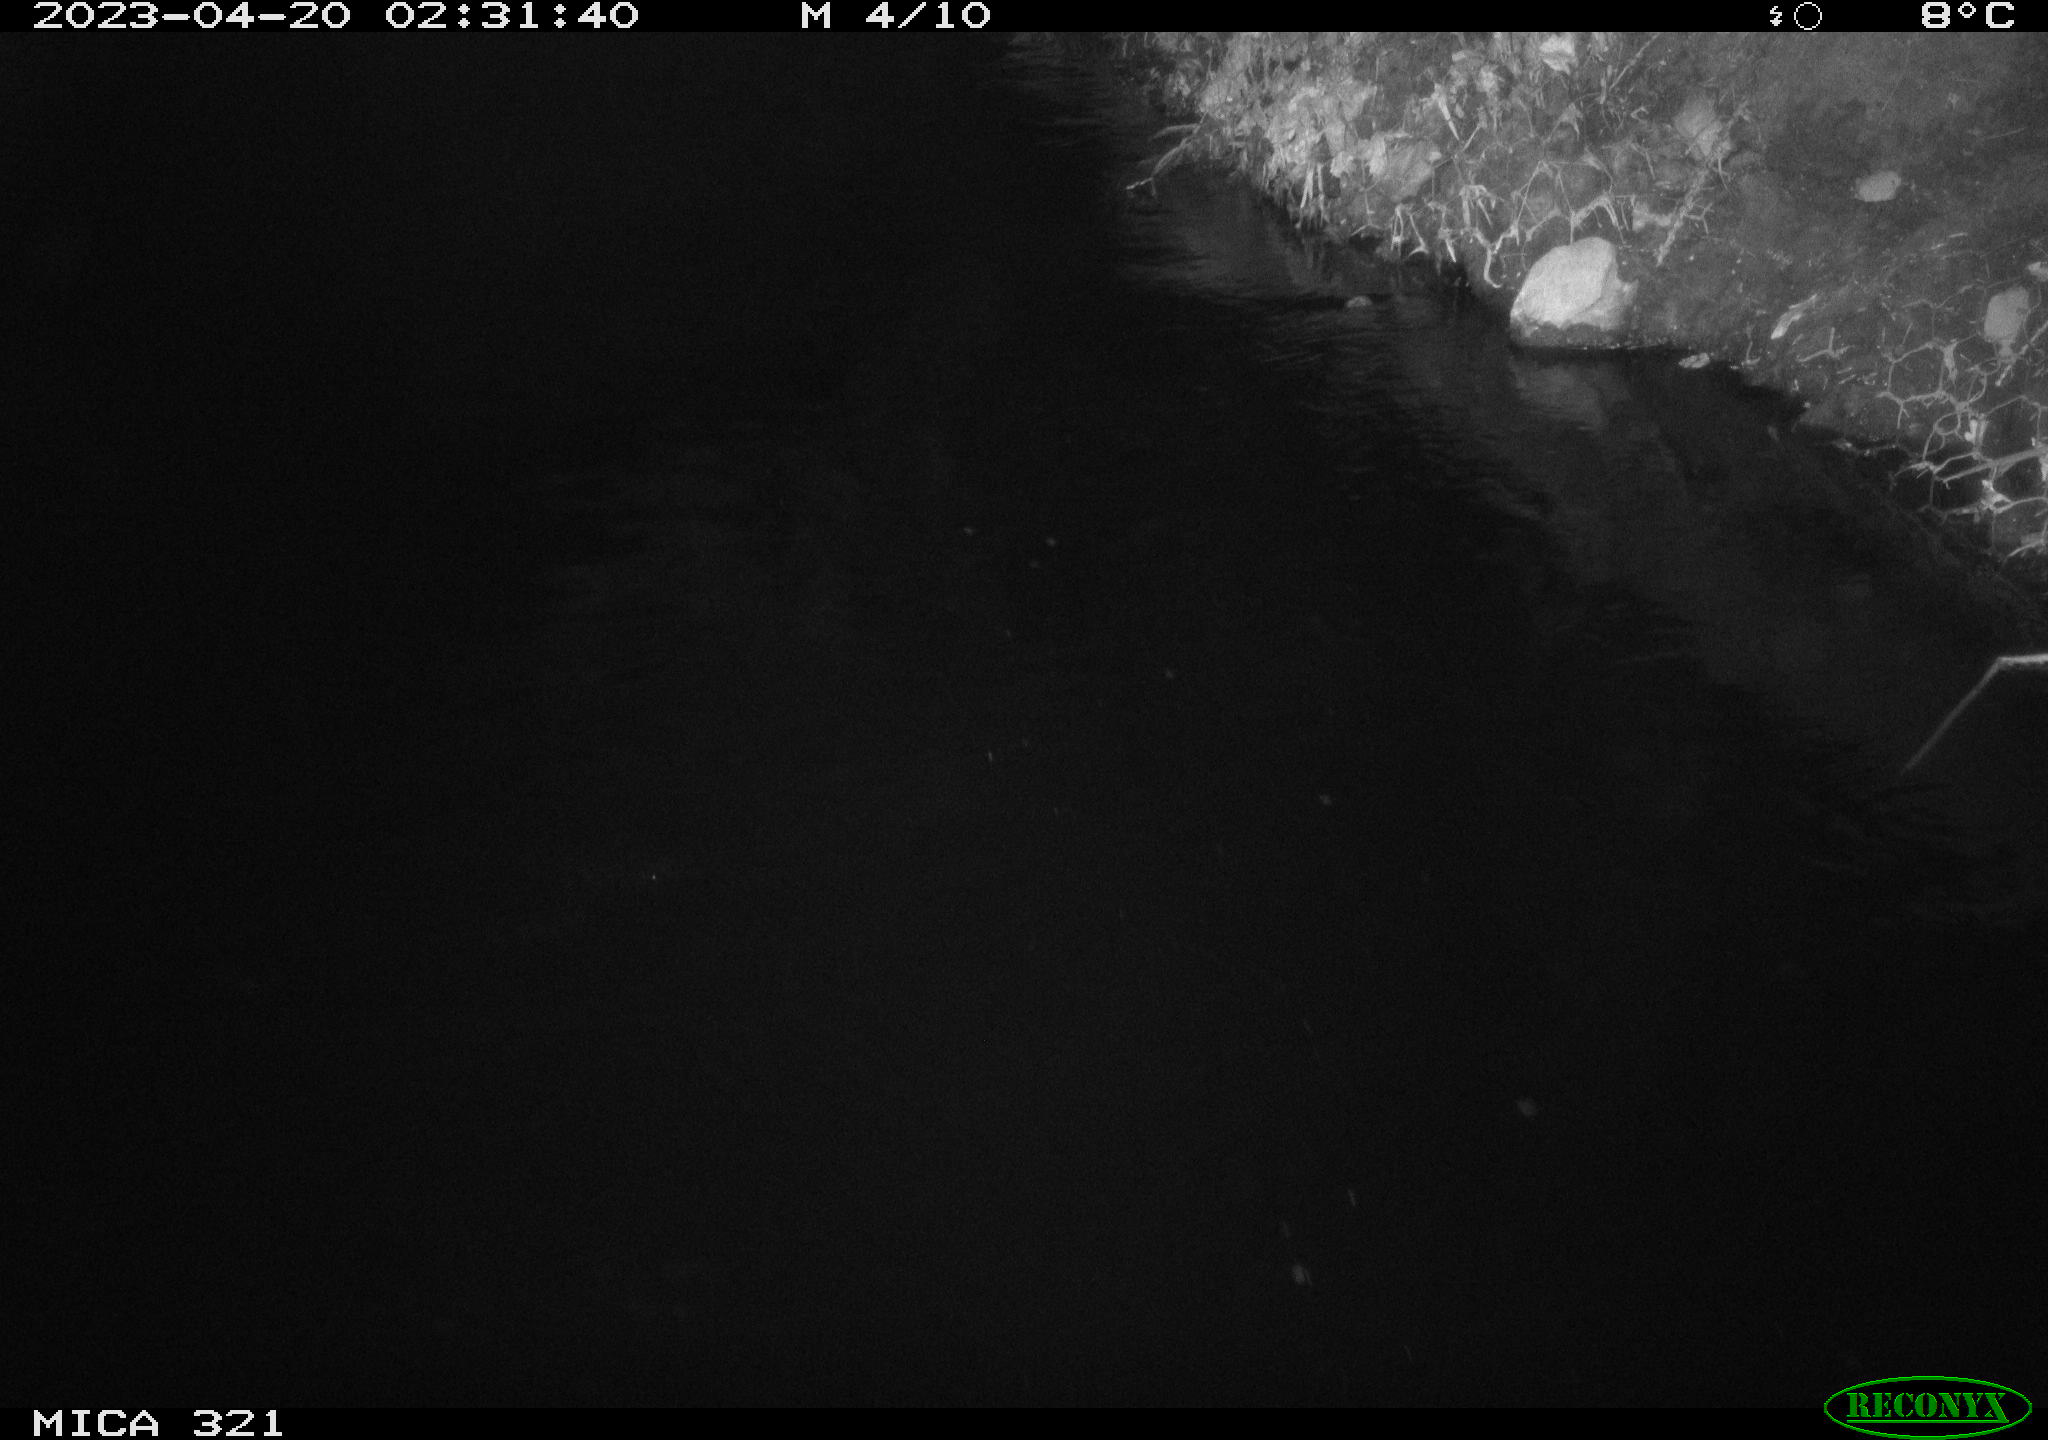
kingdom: Animalia
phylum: Chordata
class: Aves
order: Anseriformes
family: Anatidae
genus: Anas
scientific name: Anas
